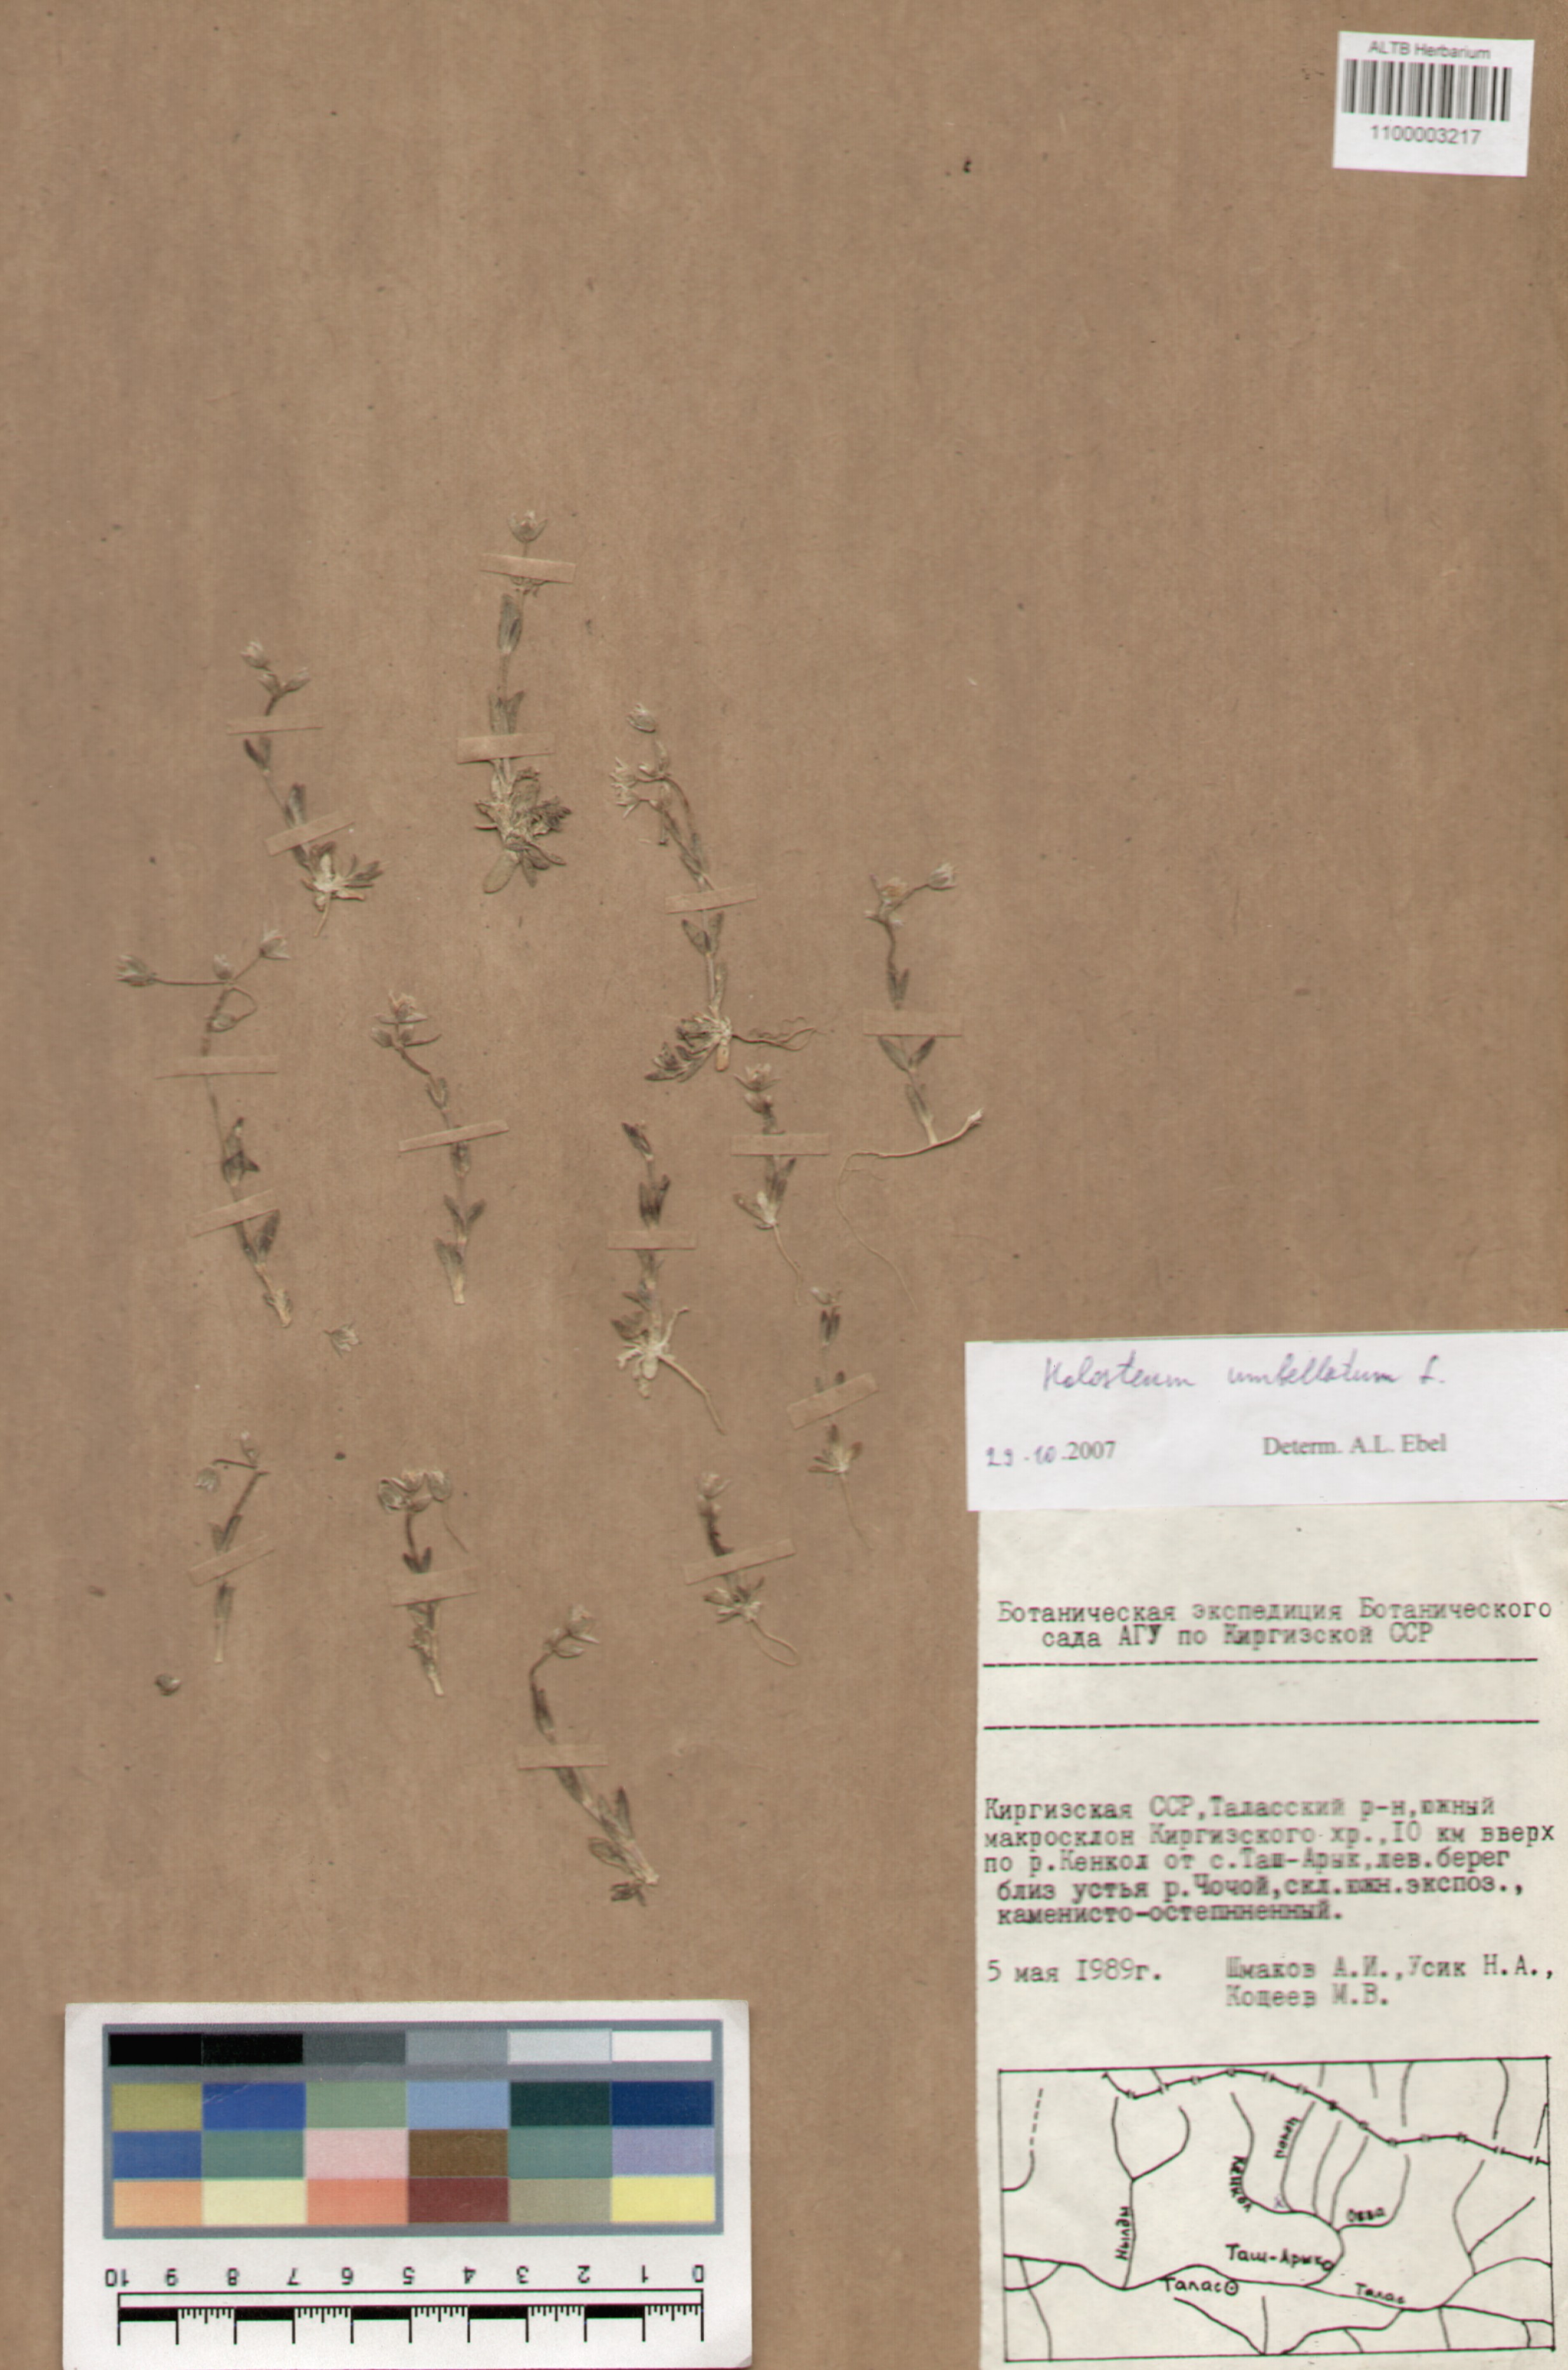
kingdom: Plantae
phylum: Tracheophyta
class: Magnoliopsida
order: Caryophyllales
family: Caryophyllaceae
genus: Holosteum
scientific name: Holosteum umbellatum
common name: Jagged chickweed
